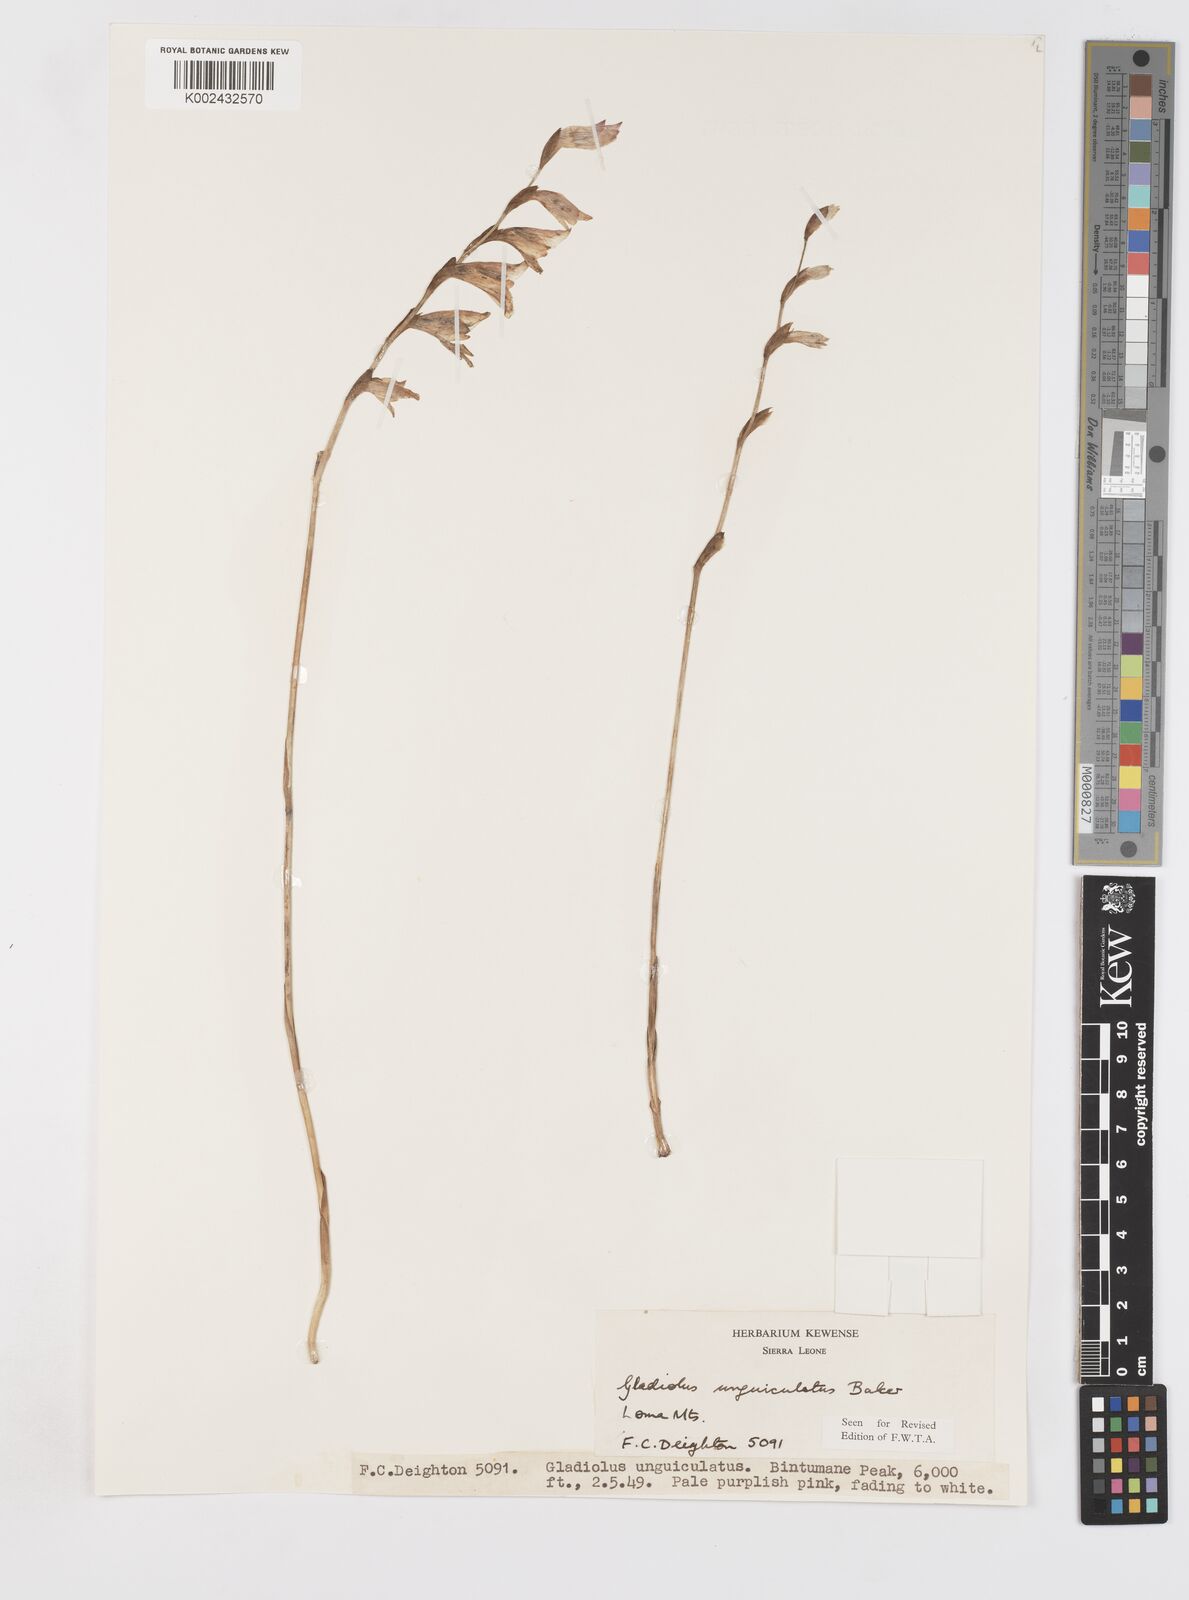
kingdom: Plantae
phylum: Tracheophyta
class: Liliopsida
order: Asparagales
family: Iridaceae
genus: Gladiolus
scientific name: Gladiolus unguiculatus
